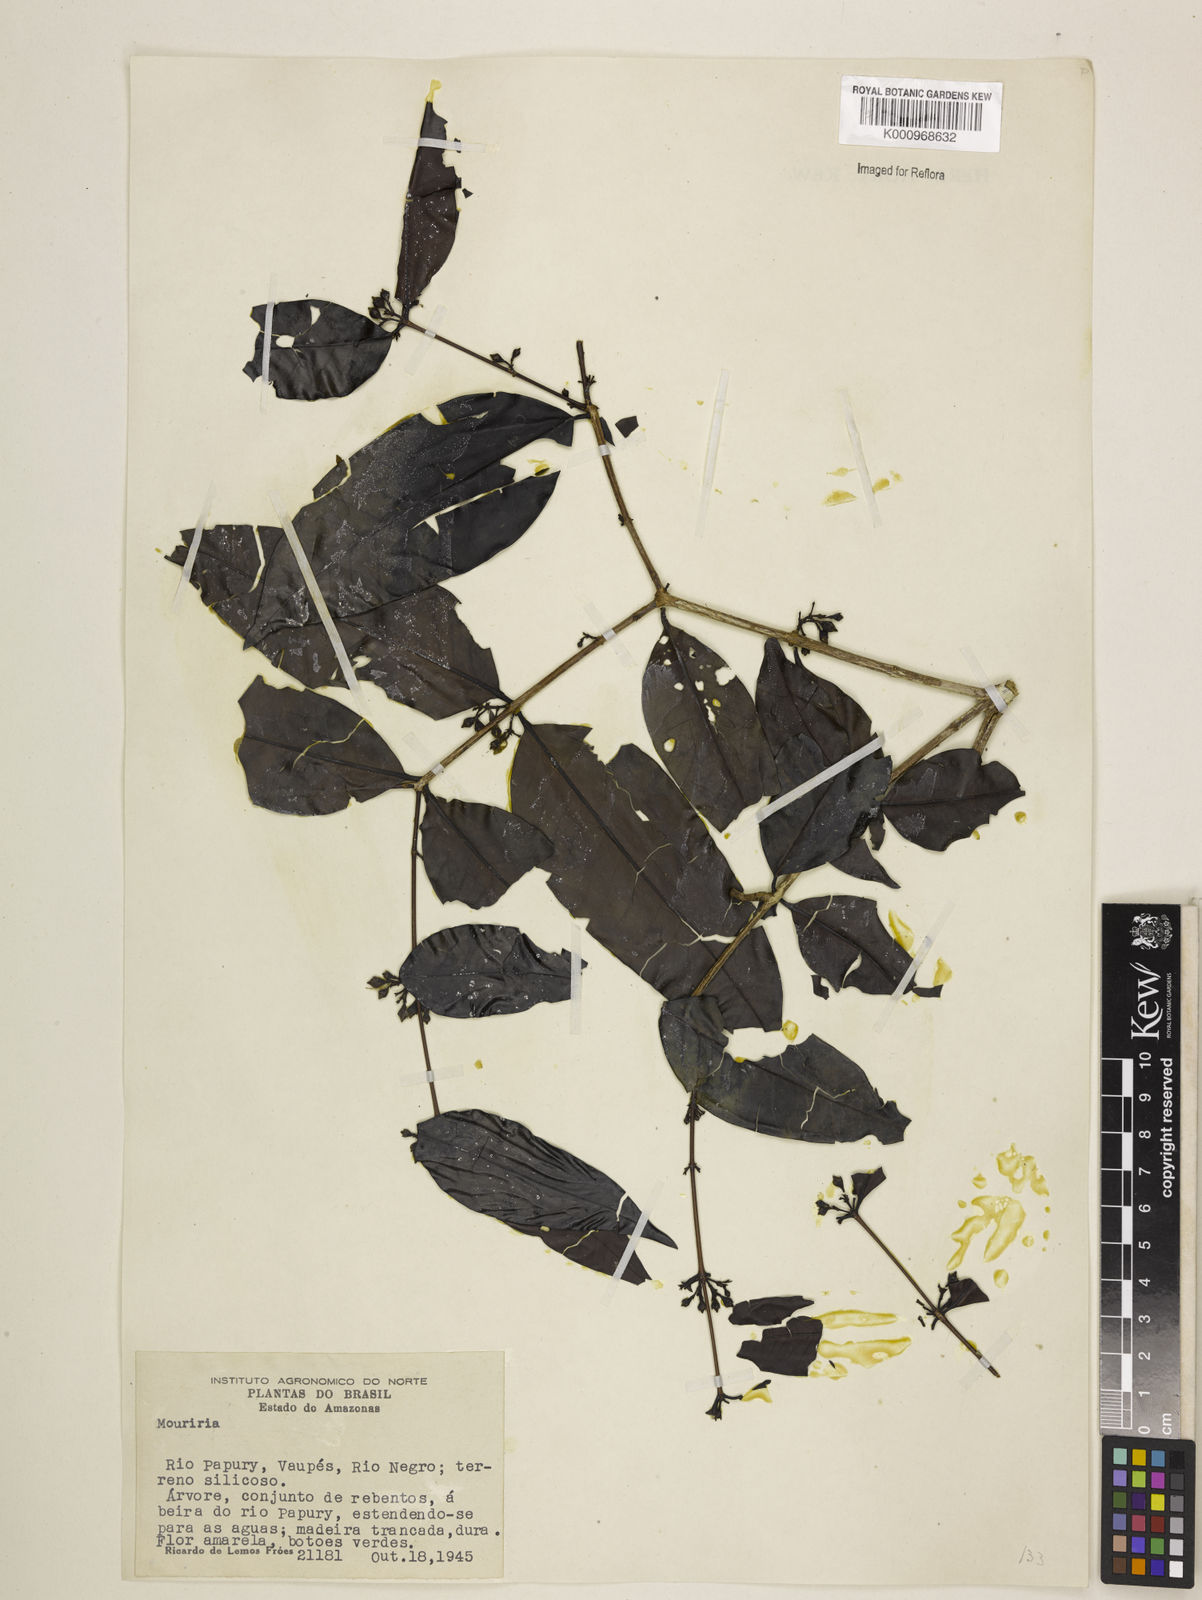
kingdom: Plantae
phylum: Tracheophyta
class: Magnoliopsida
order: Myrtales
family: Melastomataceae
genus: Mouriri
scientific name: Mouriri vernicosa
